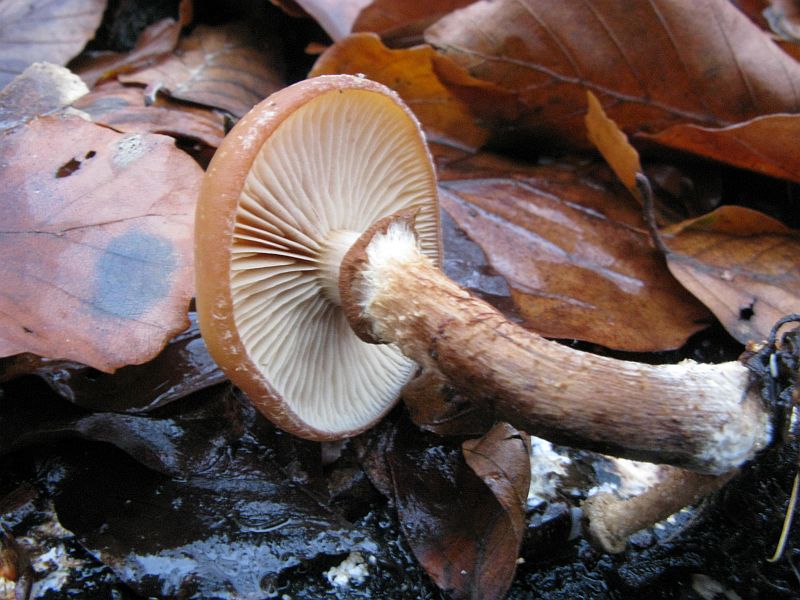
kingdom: Fungi
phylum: Basidiomycota
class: Agaricomycetes
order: Agaricales
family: Strophariaceae
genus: Kuehneromyces
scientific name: Kuehneromyces mutabilis
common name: foranderlig skælhat
